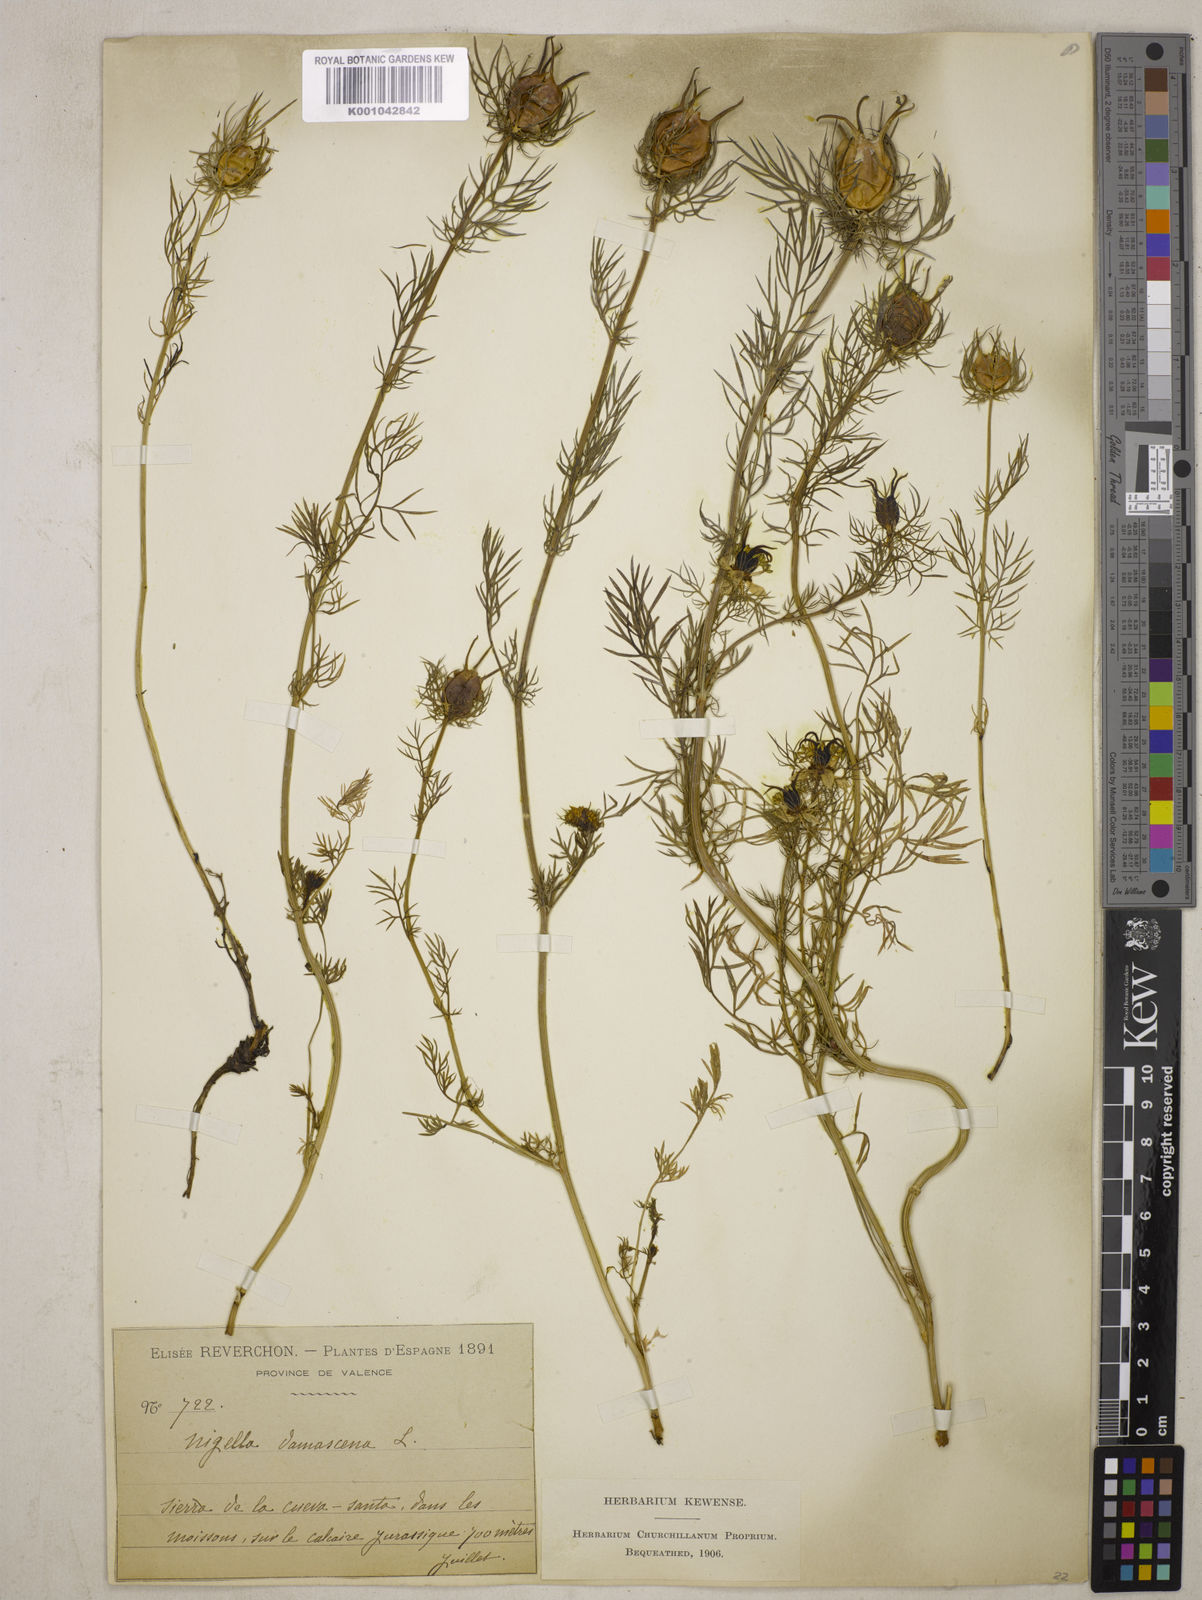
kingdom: Plantae
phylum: Tracheophyta
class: Magnoliopsida
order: Ranunculales
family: Ranunculaceae
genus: Nigella
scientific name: Nigella damascena
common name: Love-in-a-mist
